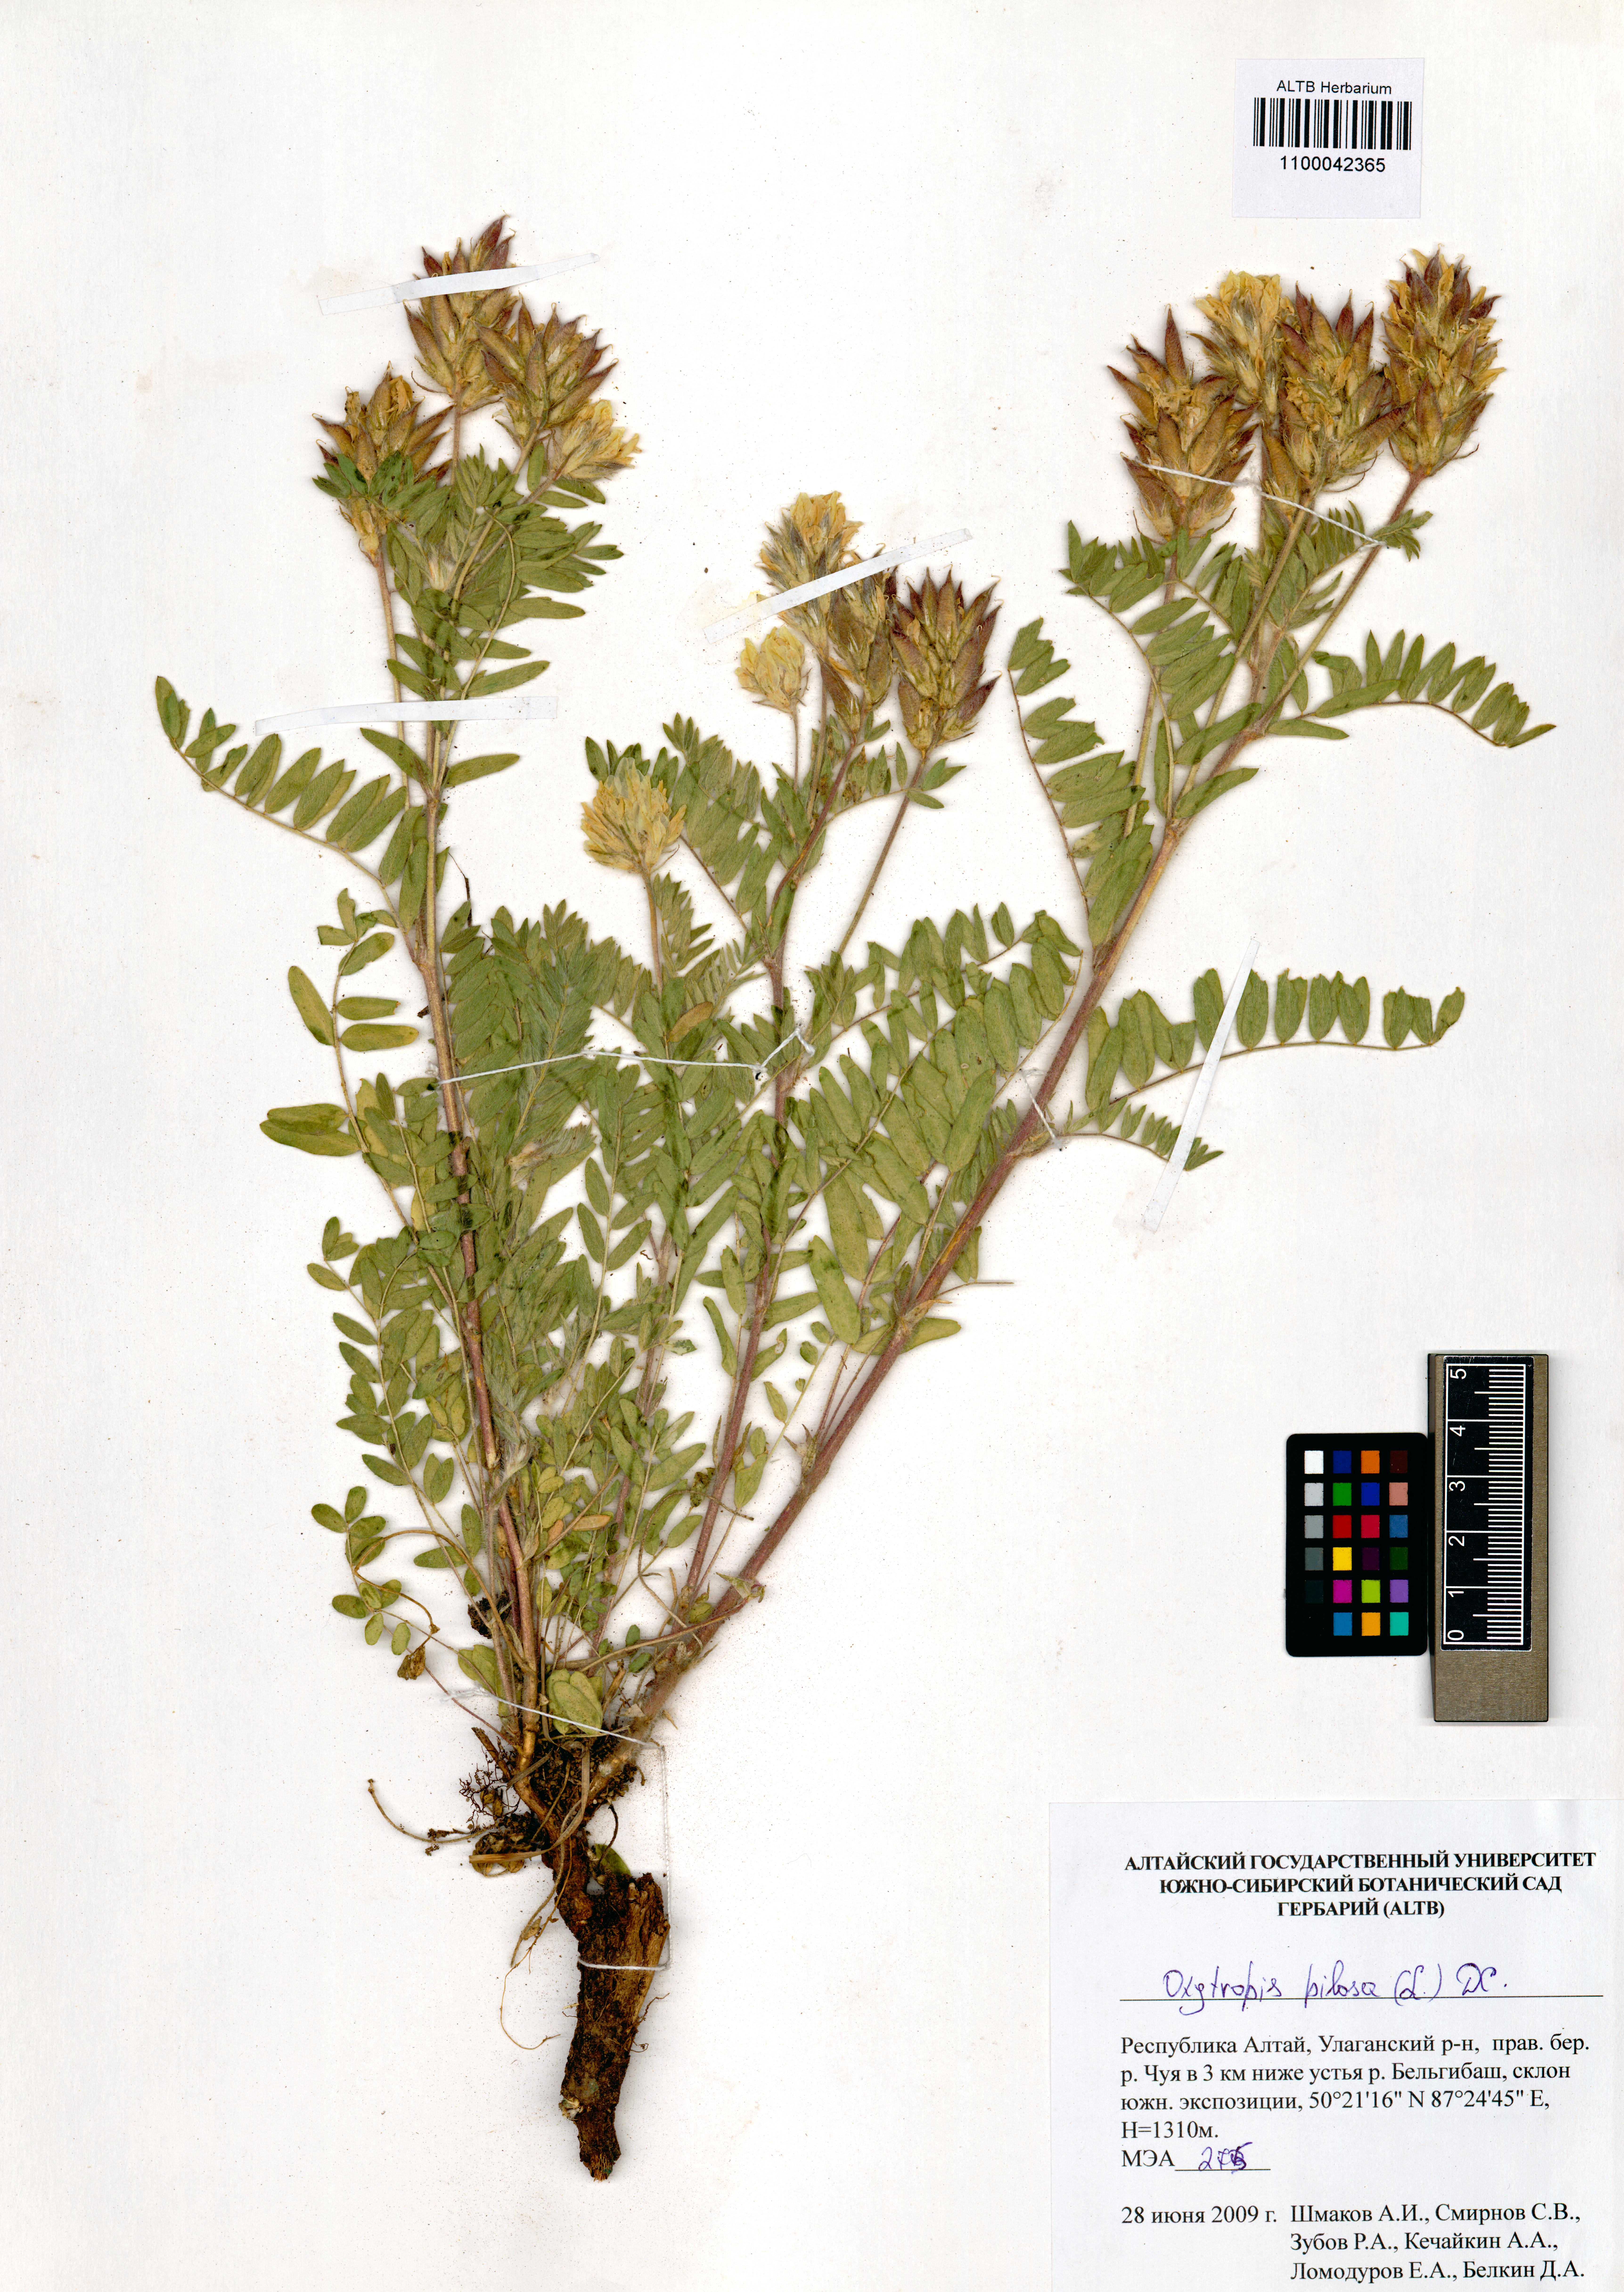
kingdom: Plantae
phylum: Tracheophyta
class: Magnoliopsida
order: Fabales
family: Fabaceae
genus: Oxytropis
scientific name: Oxytropis pilosa
